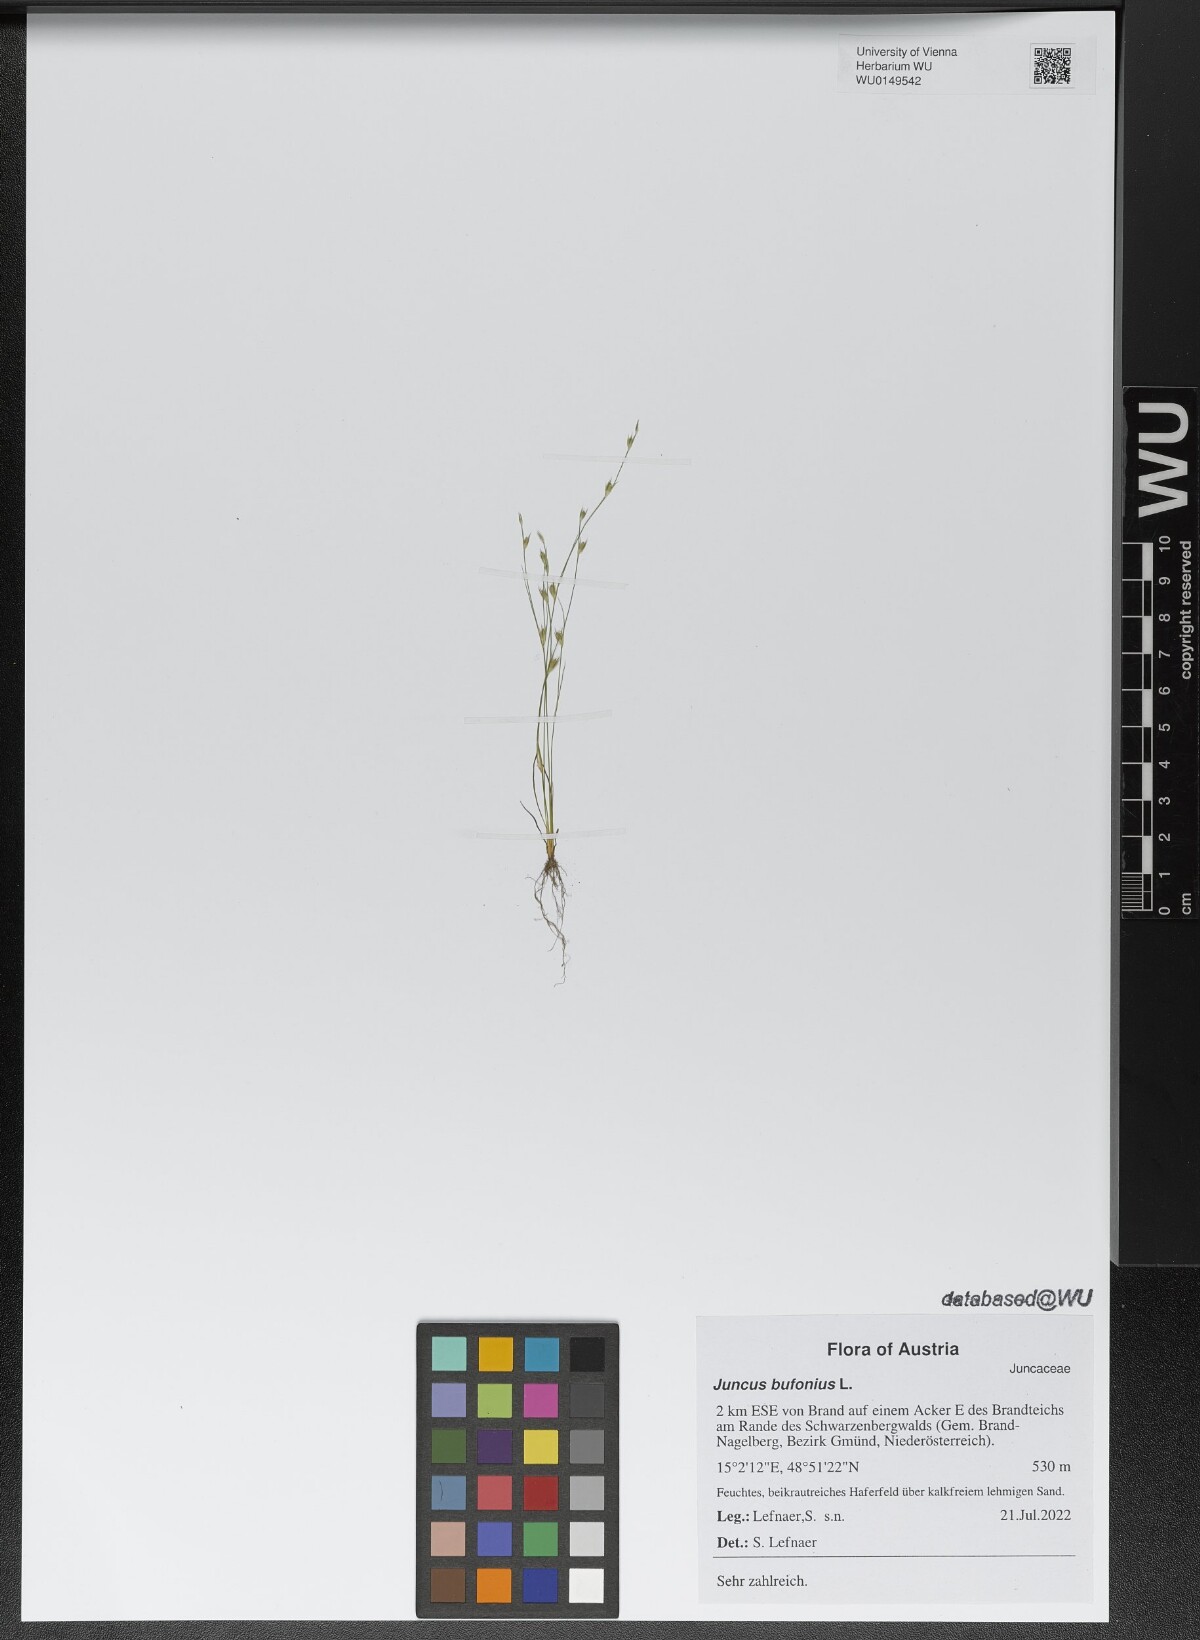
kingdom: Plantae
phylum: Tracheophyta
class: Liliopsida
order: Poales
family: Juncaceae
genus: Juncus
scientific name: Juncus bufonius
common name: Toad rush
